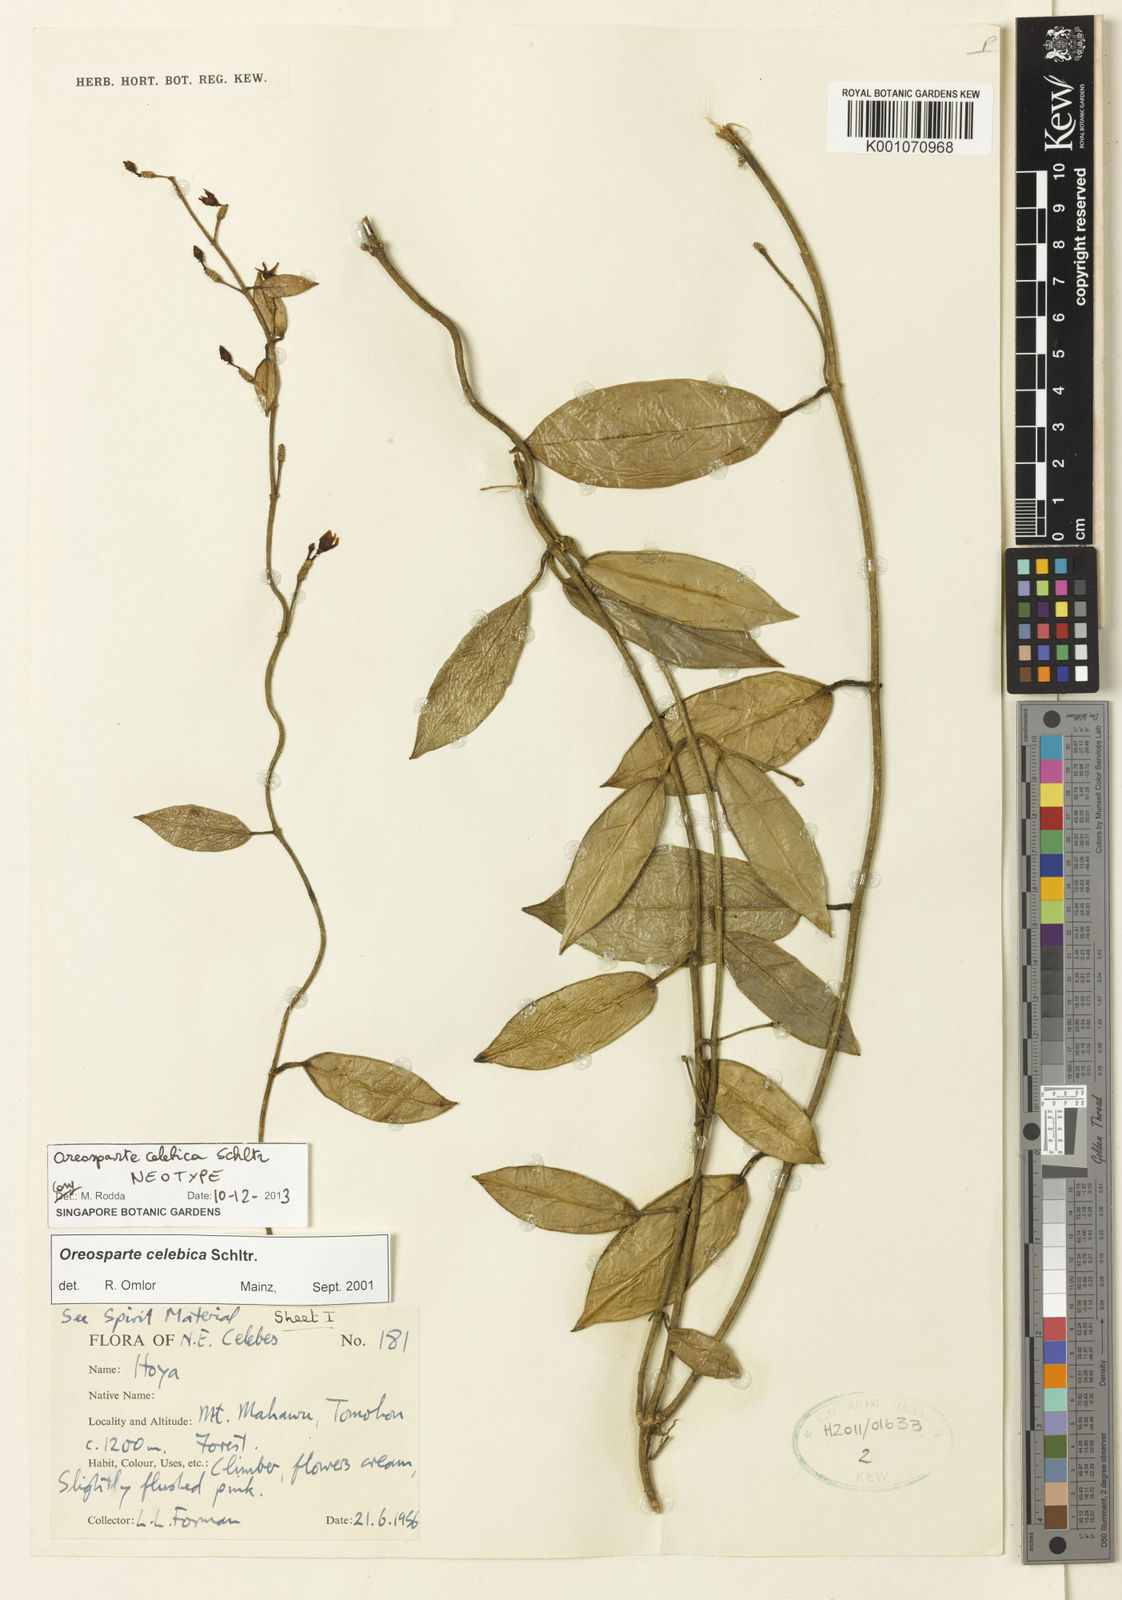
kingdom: Plantae
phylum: Tracheophyta
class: Magnoliopsida
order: Gentianales
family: Apocynaceae
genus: Oreosparte
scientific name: Oreosparte celebica
